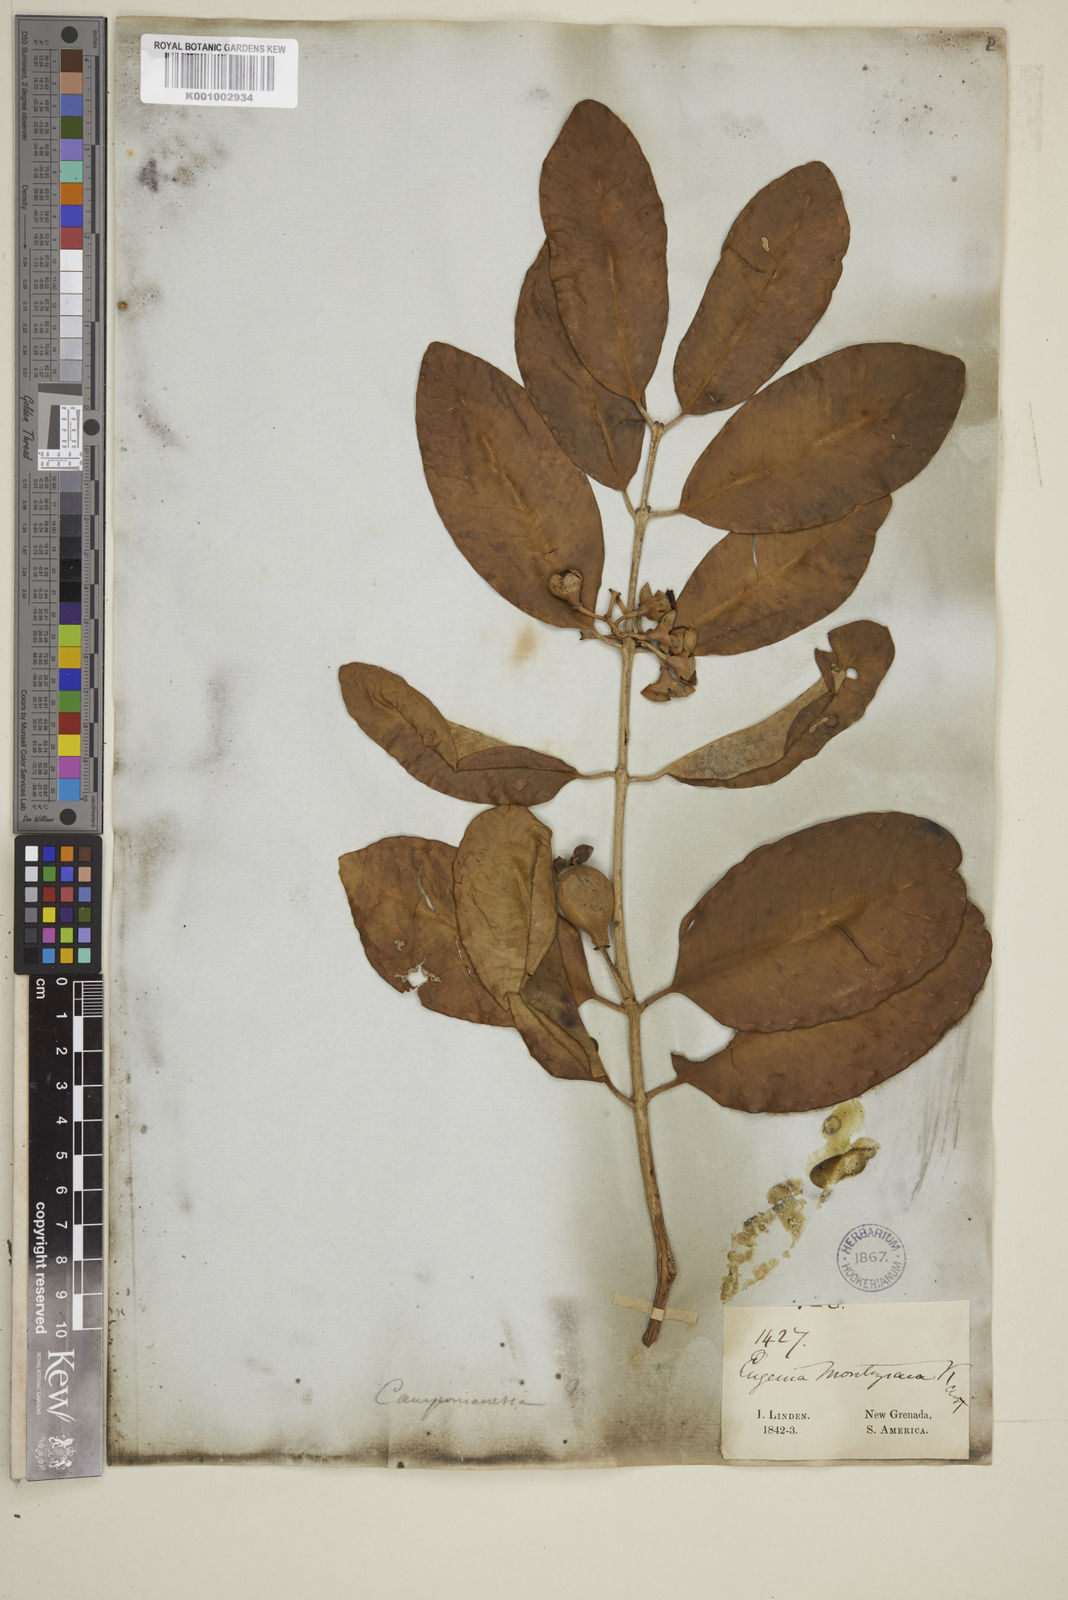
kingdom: Plantae
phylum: Tracheophyta
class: Magnoliopsida
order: Myrtales
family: Myrtaceae
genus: Eugenia
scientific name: Eugenia moritziana
